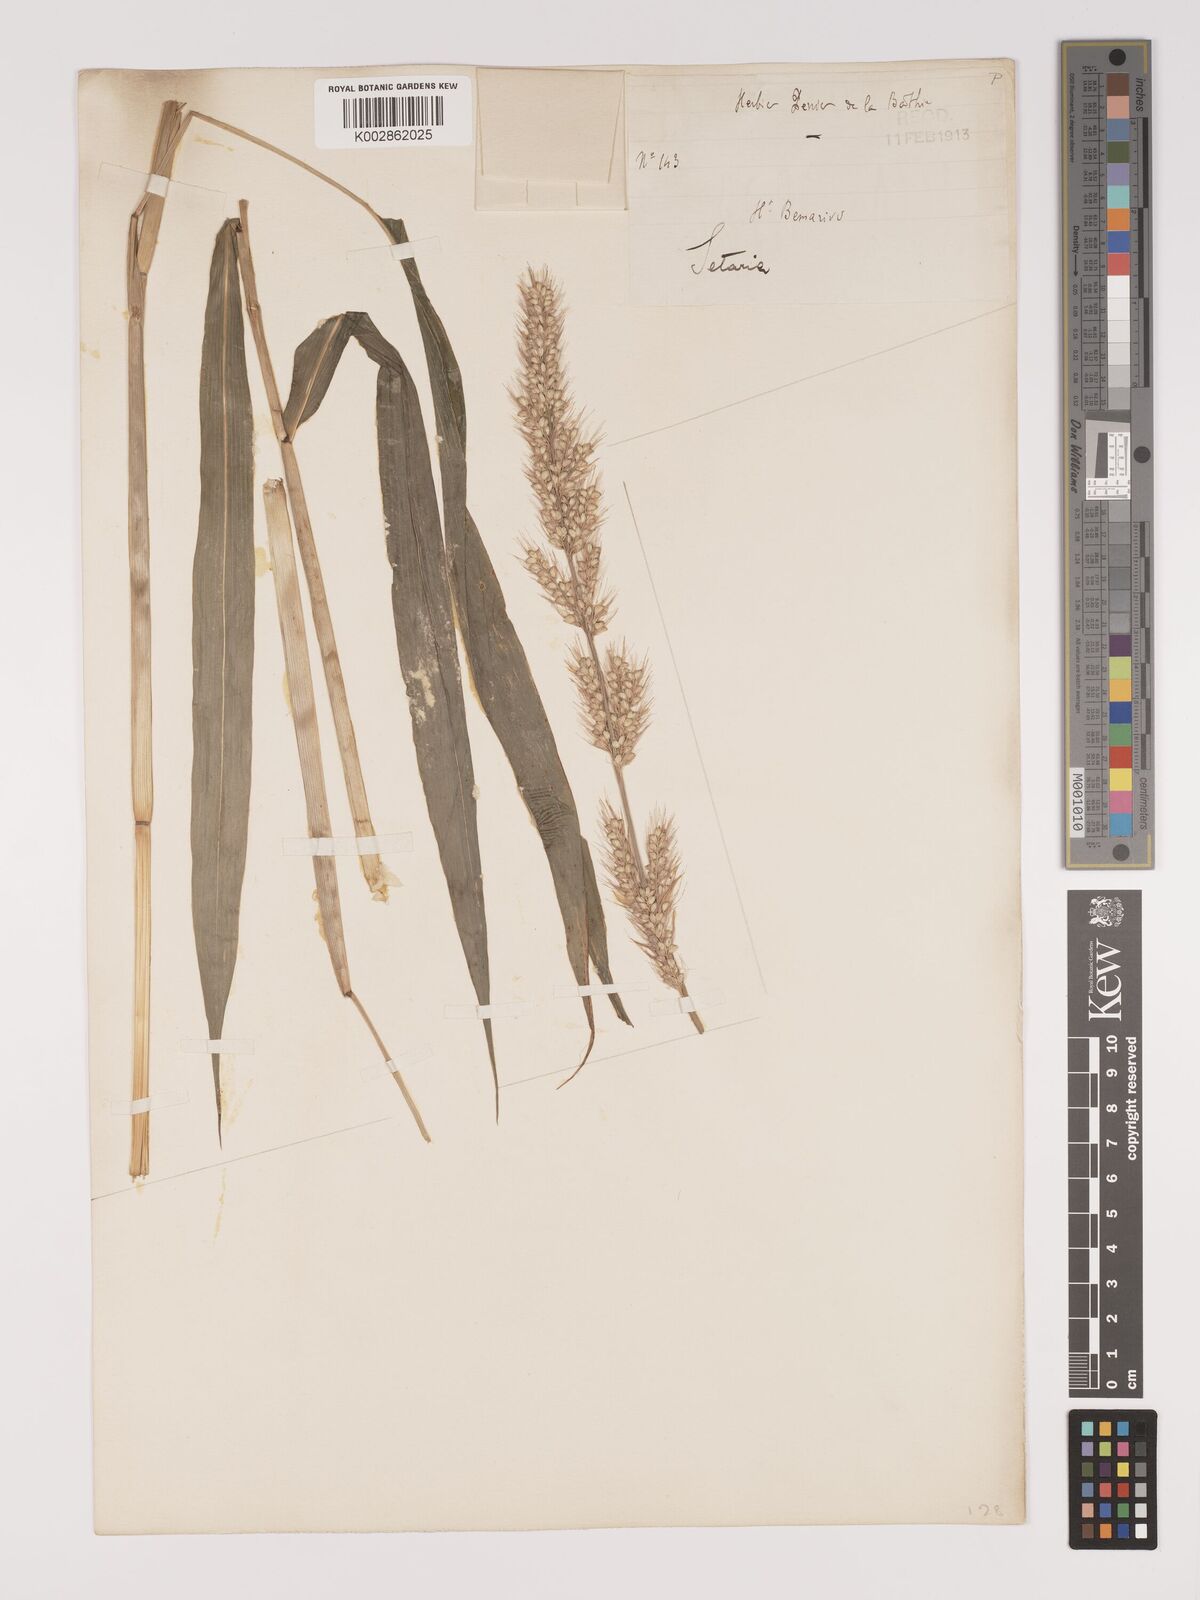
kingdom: Plantae
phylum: Tracheophyta
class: Liliopsida
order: Poales
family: Poaceae
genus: Setaria
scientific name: Setaria vatkeana
